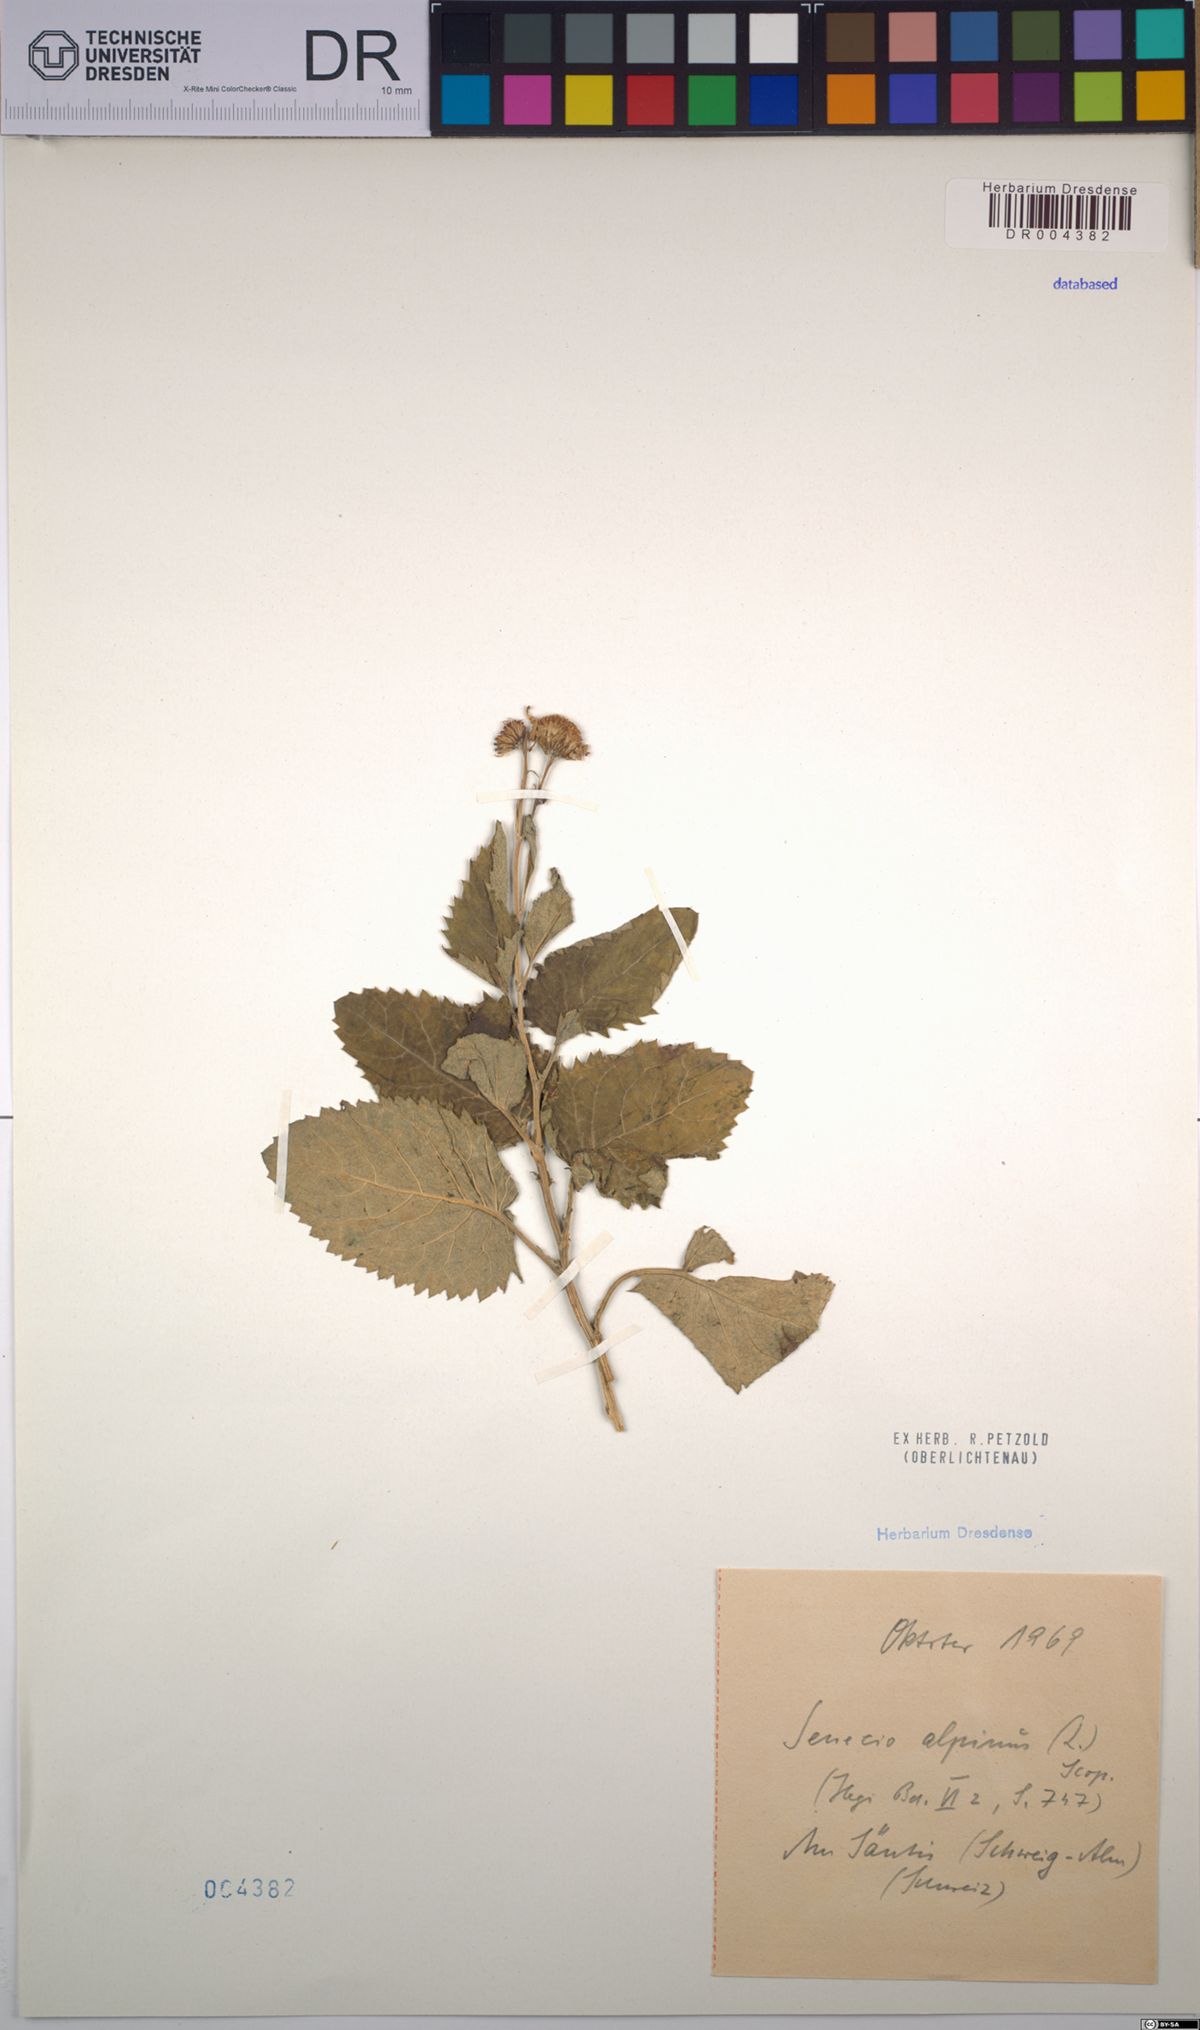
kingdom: Plantae
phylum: Tracheophyta
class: Magnoliopsida
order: Asterales
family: Asteraceae
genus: Jacobaea
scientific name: Jacobaea alpina
